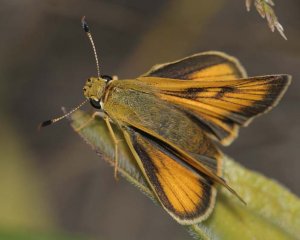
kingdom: Animalia
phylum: Arthropoda
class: Insecta
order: Lepidoptera
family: Hesperiidae
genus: Atrytone
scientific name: Atrytone delaware
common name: Delaware Skipper
